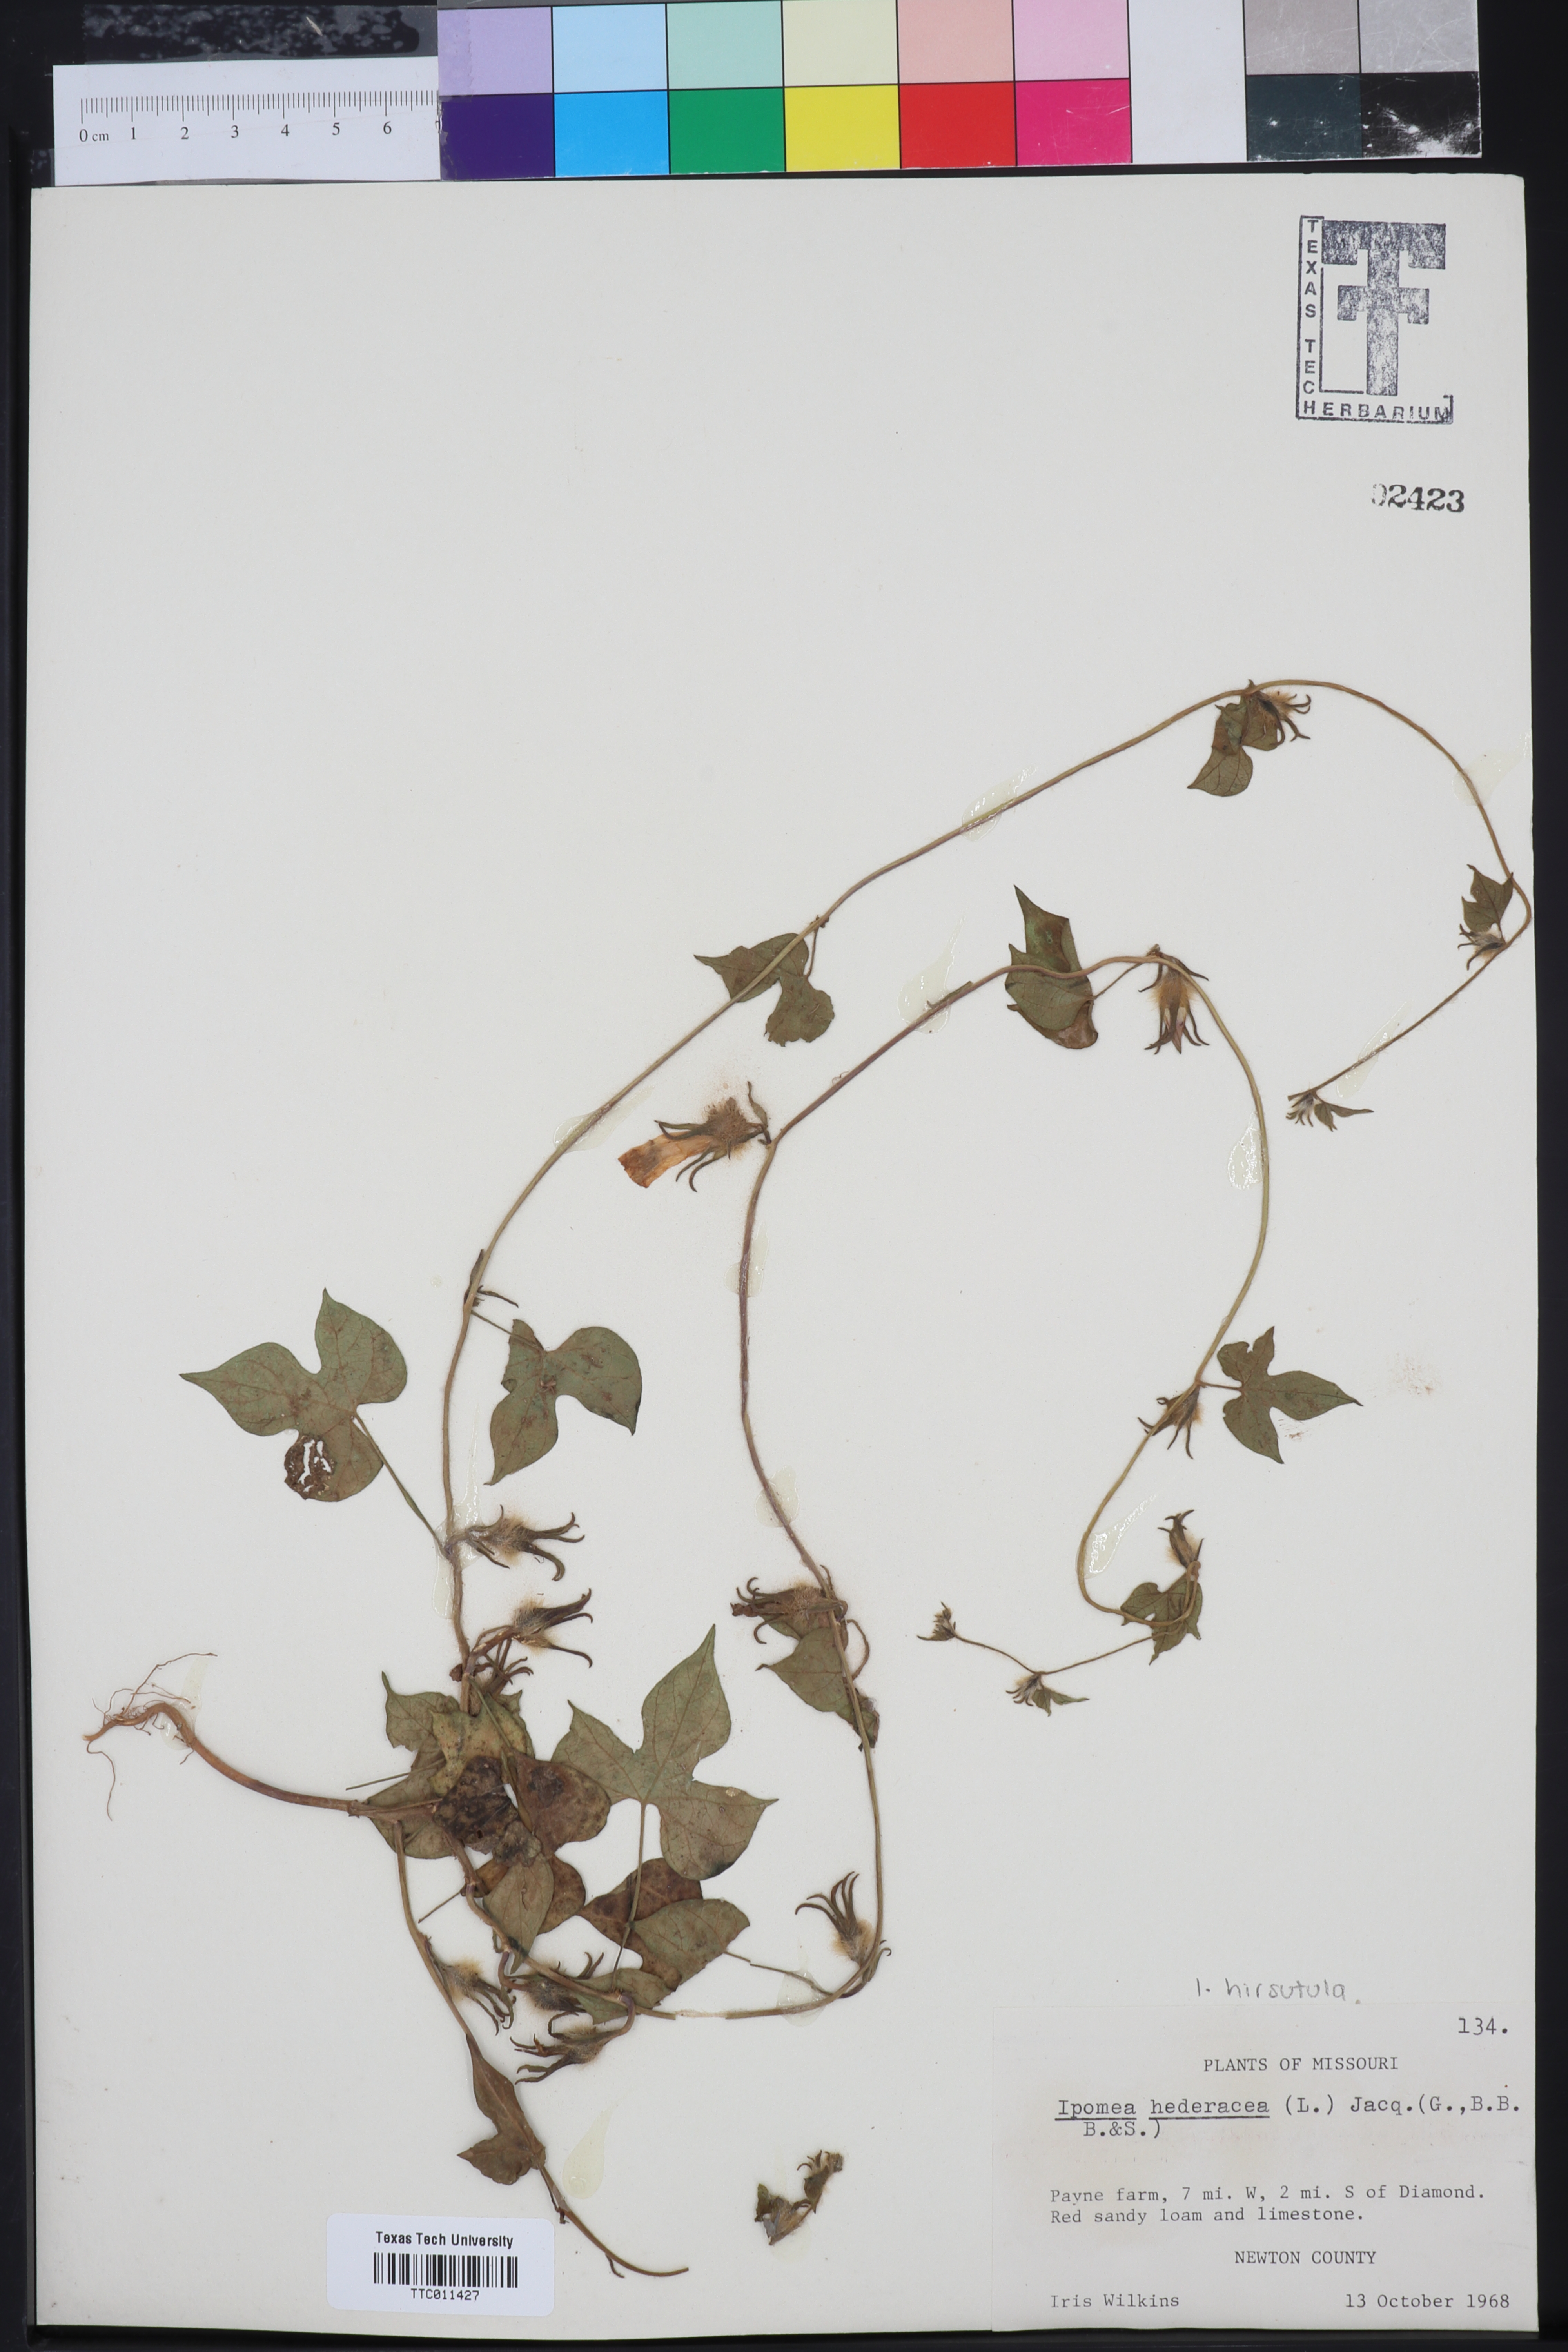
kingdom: Plantae
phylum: Tracheophyta
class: Magnoliopsida
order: Solanales
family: Convolvulaceae
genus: Ipomoea
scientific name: Ipomoea hederacea
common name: Ivy-leaved morning-glory
